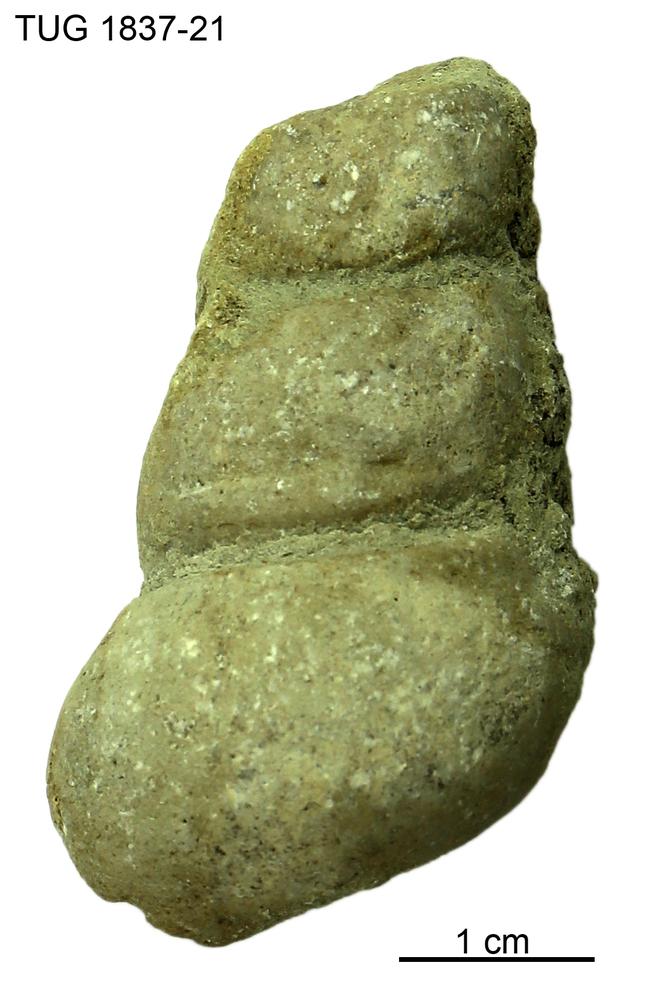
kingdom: Animalia
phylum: Mollusca
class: Gastropoda
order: Pleurotomariida
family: Murchisoniidae
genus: Hormotoma
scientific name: Hormotoma
